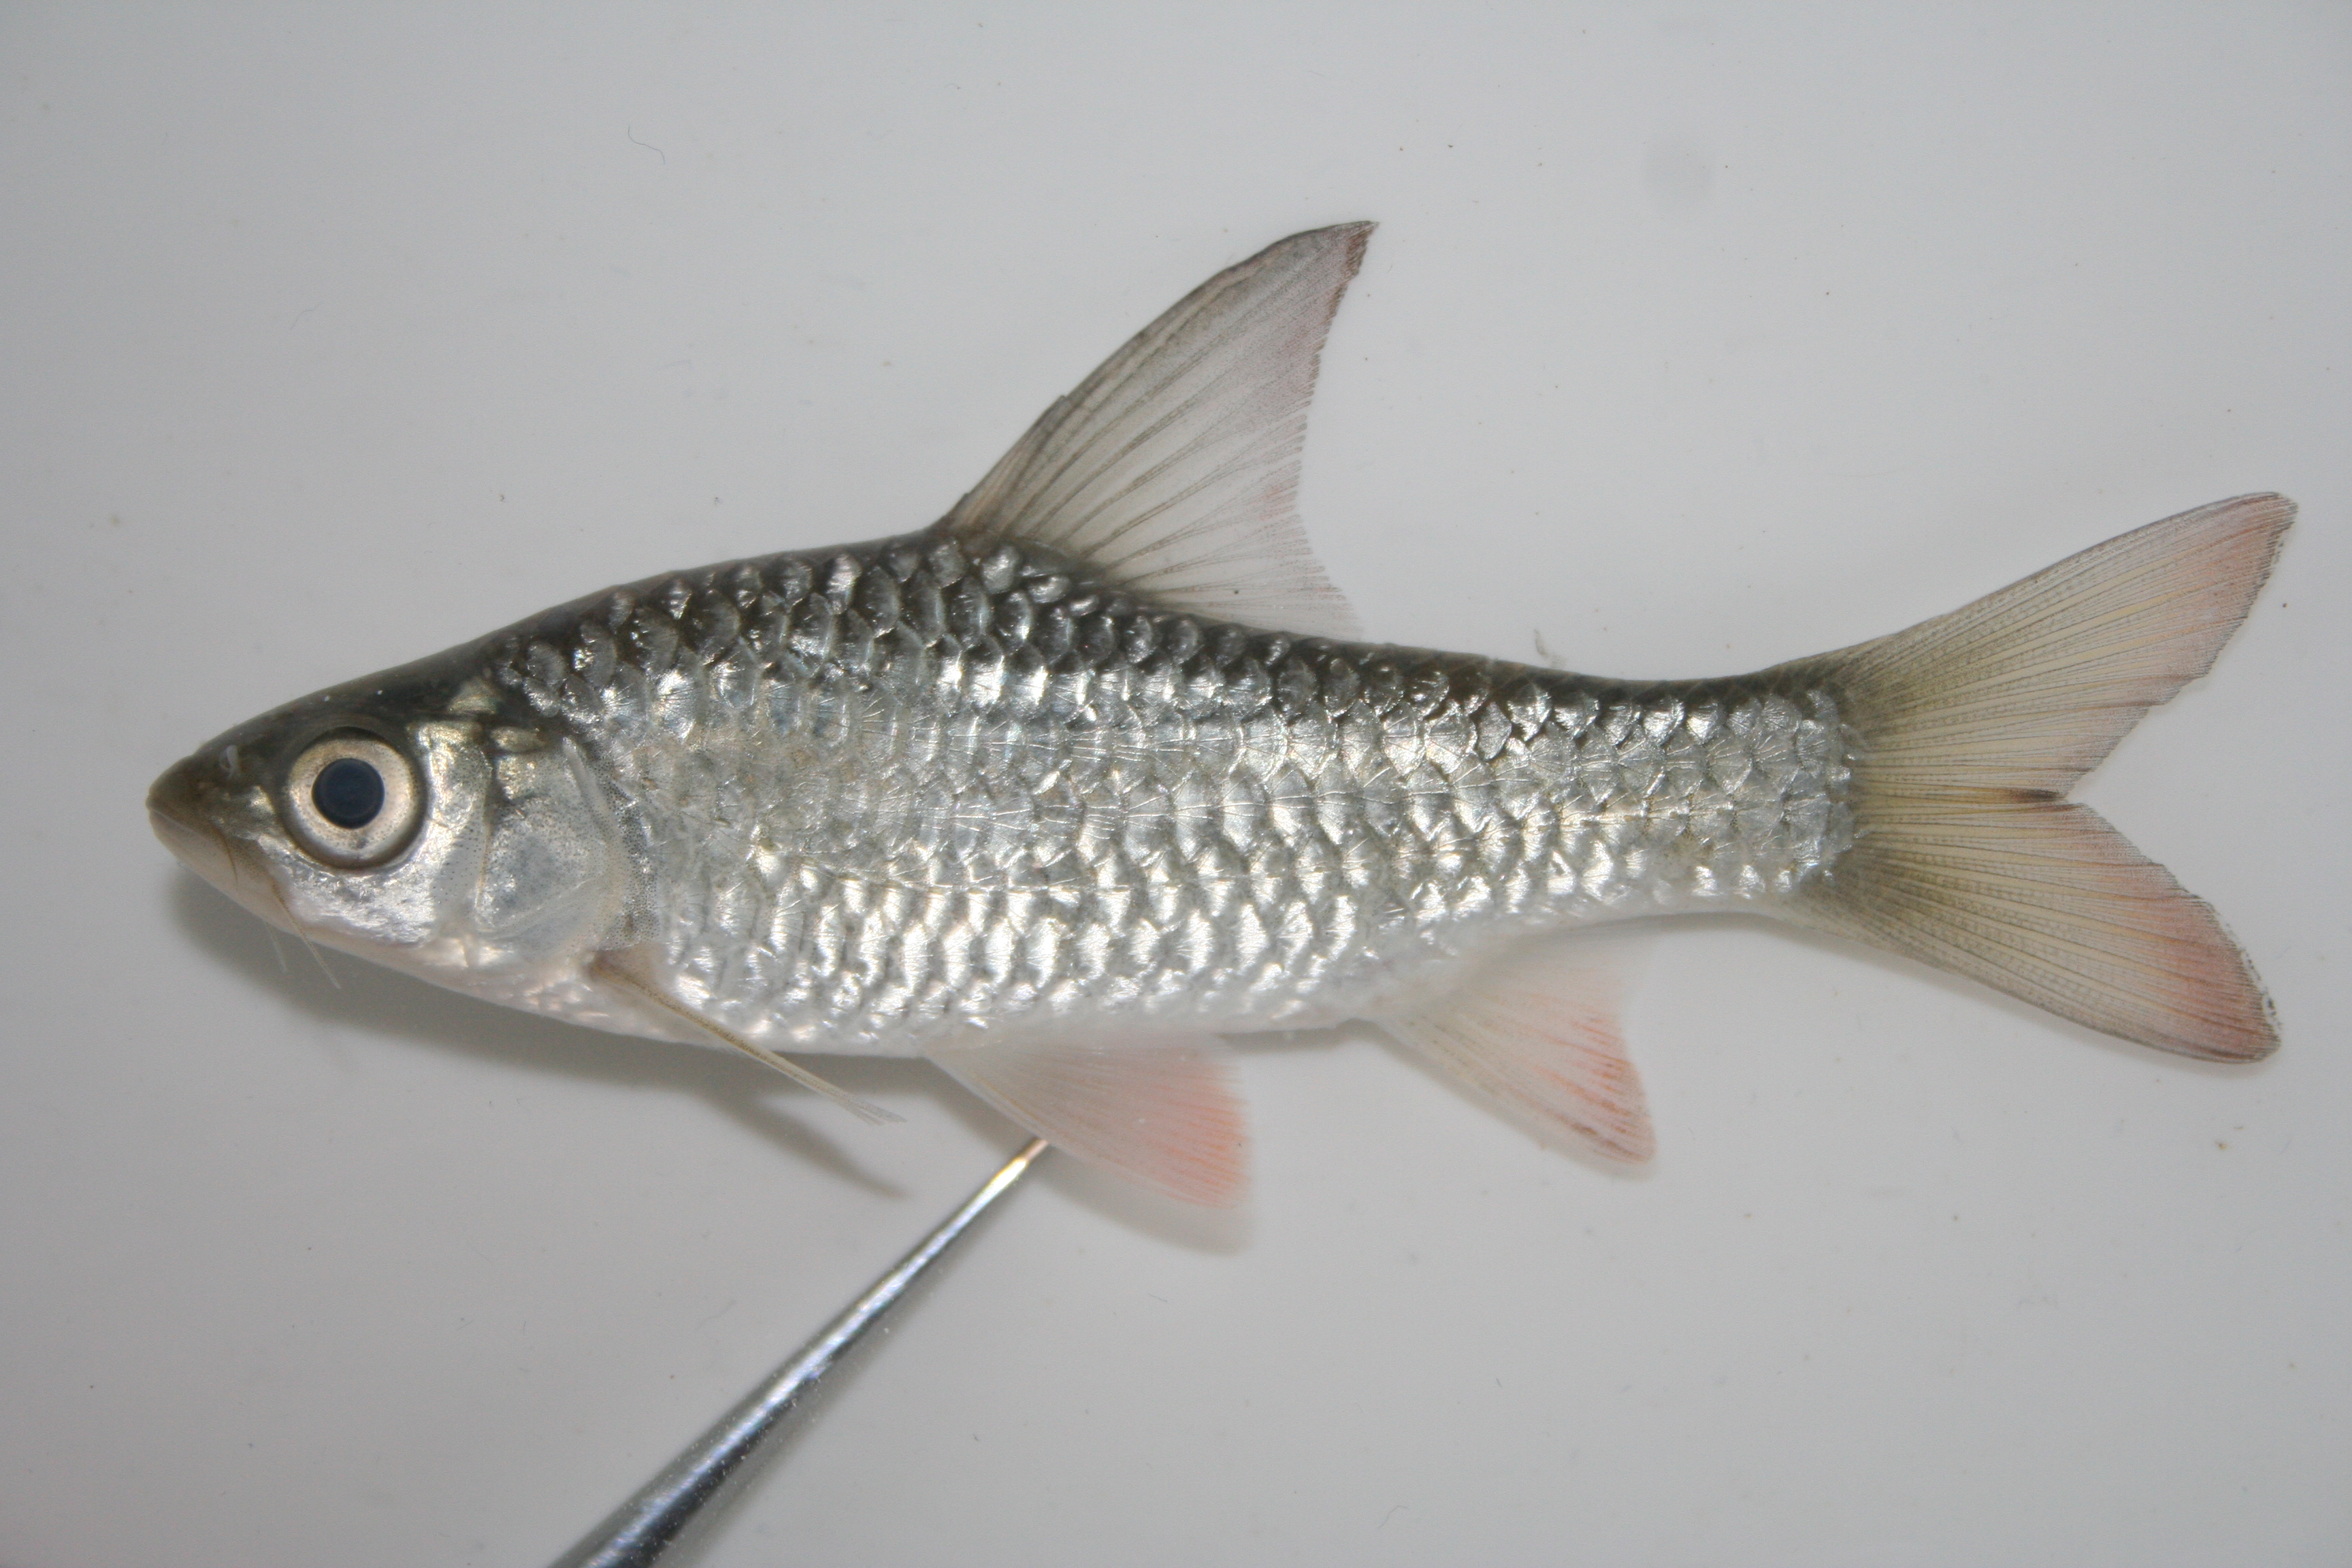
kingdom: Animalia
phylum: Chordata
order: Cypriniformes
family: Cyprinidae
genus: Enteromius
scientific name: Enteromius mattozi
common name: Papermouth
